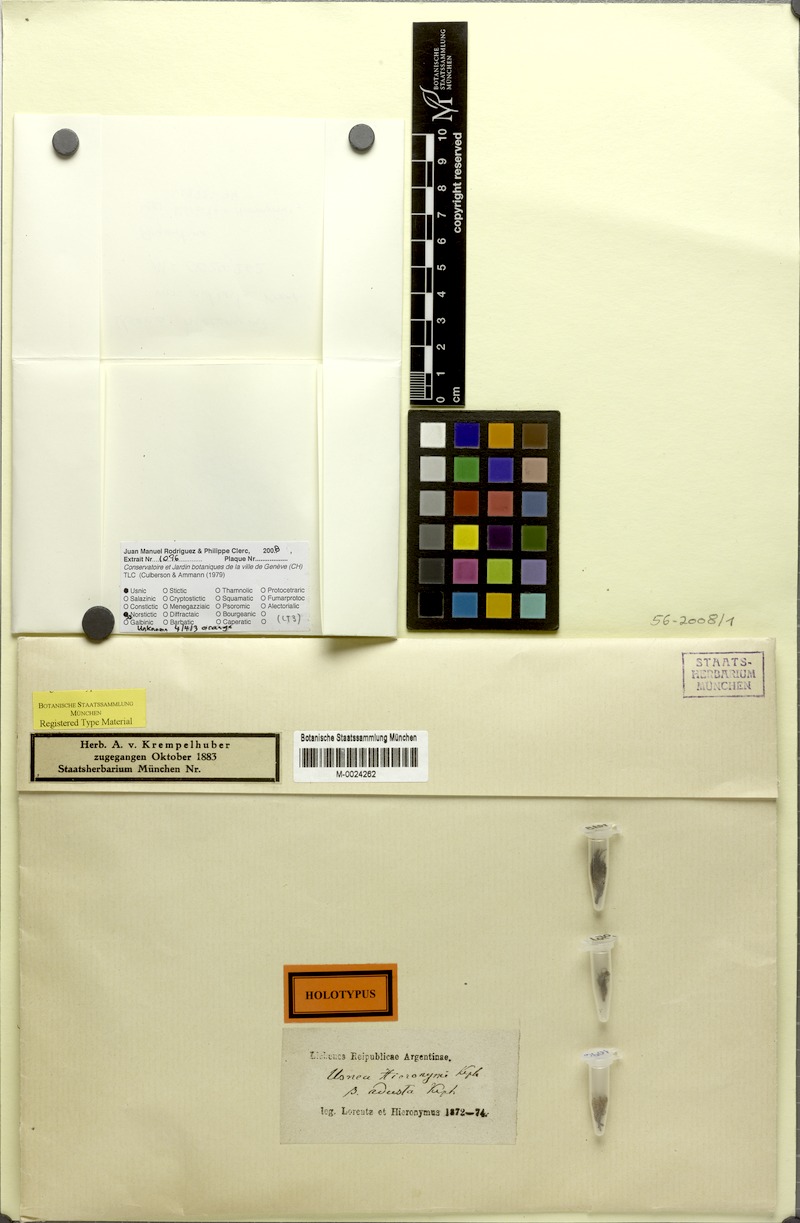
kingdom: Fungi
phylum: Ascomycota
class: Lecanoromycetes
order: Lecanorales
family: Parmeliaceae
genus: Usnea
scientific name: Usnea
